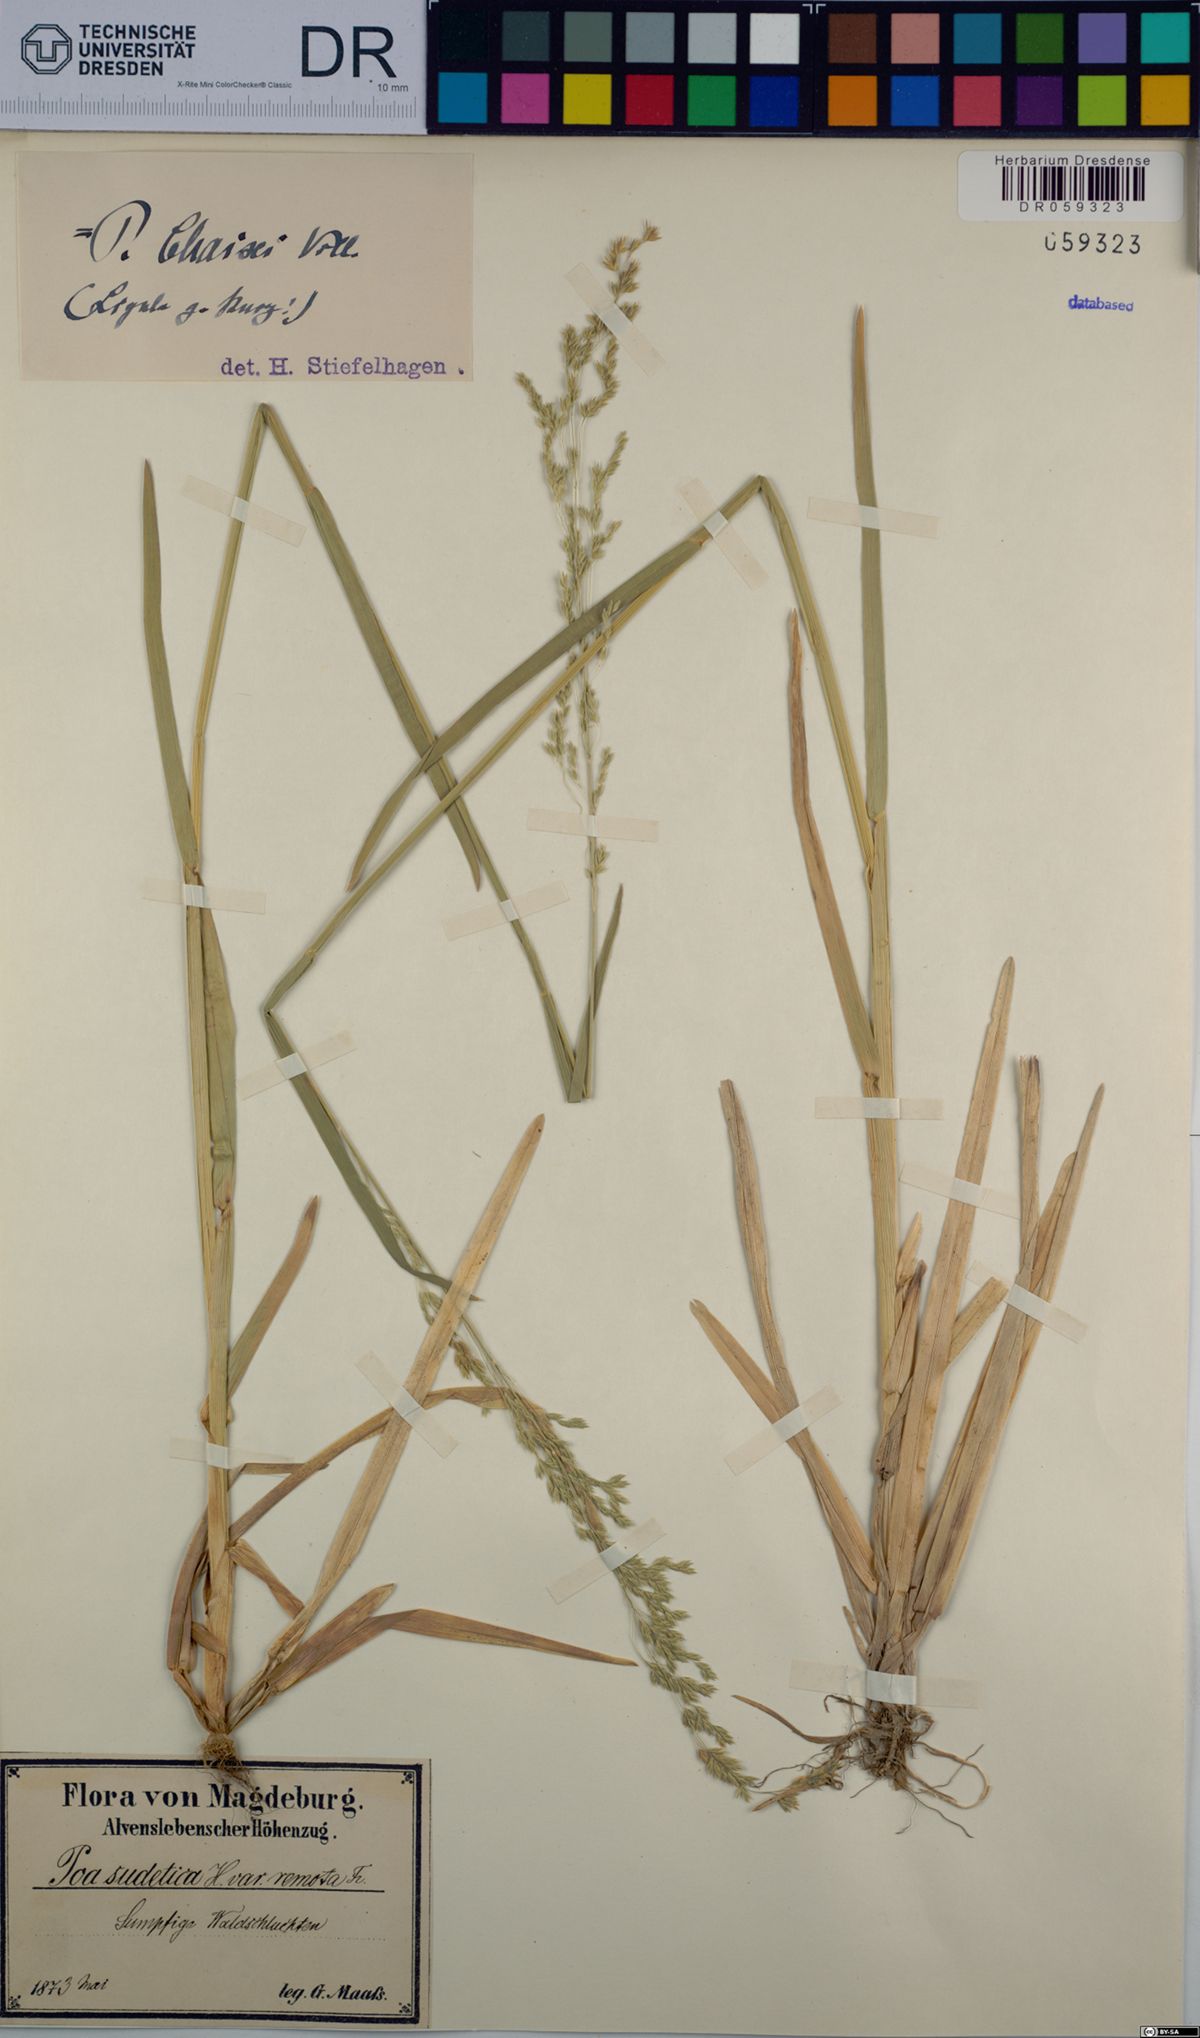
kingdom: Plantae
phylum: Tracheophyta
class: Liliopsida
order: Poales
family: Poaceae
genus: Poa
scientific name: Poa chaixii
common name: Broad-leaved meadow-grass
